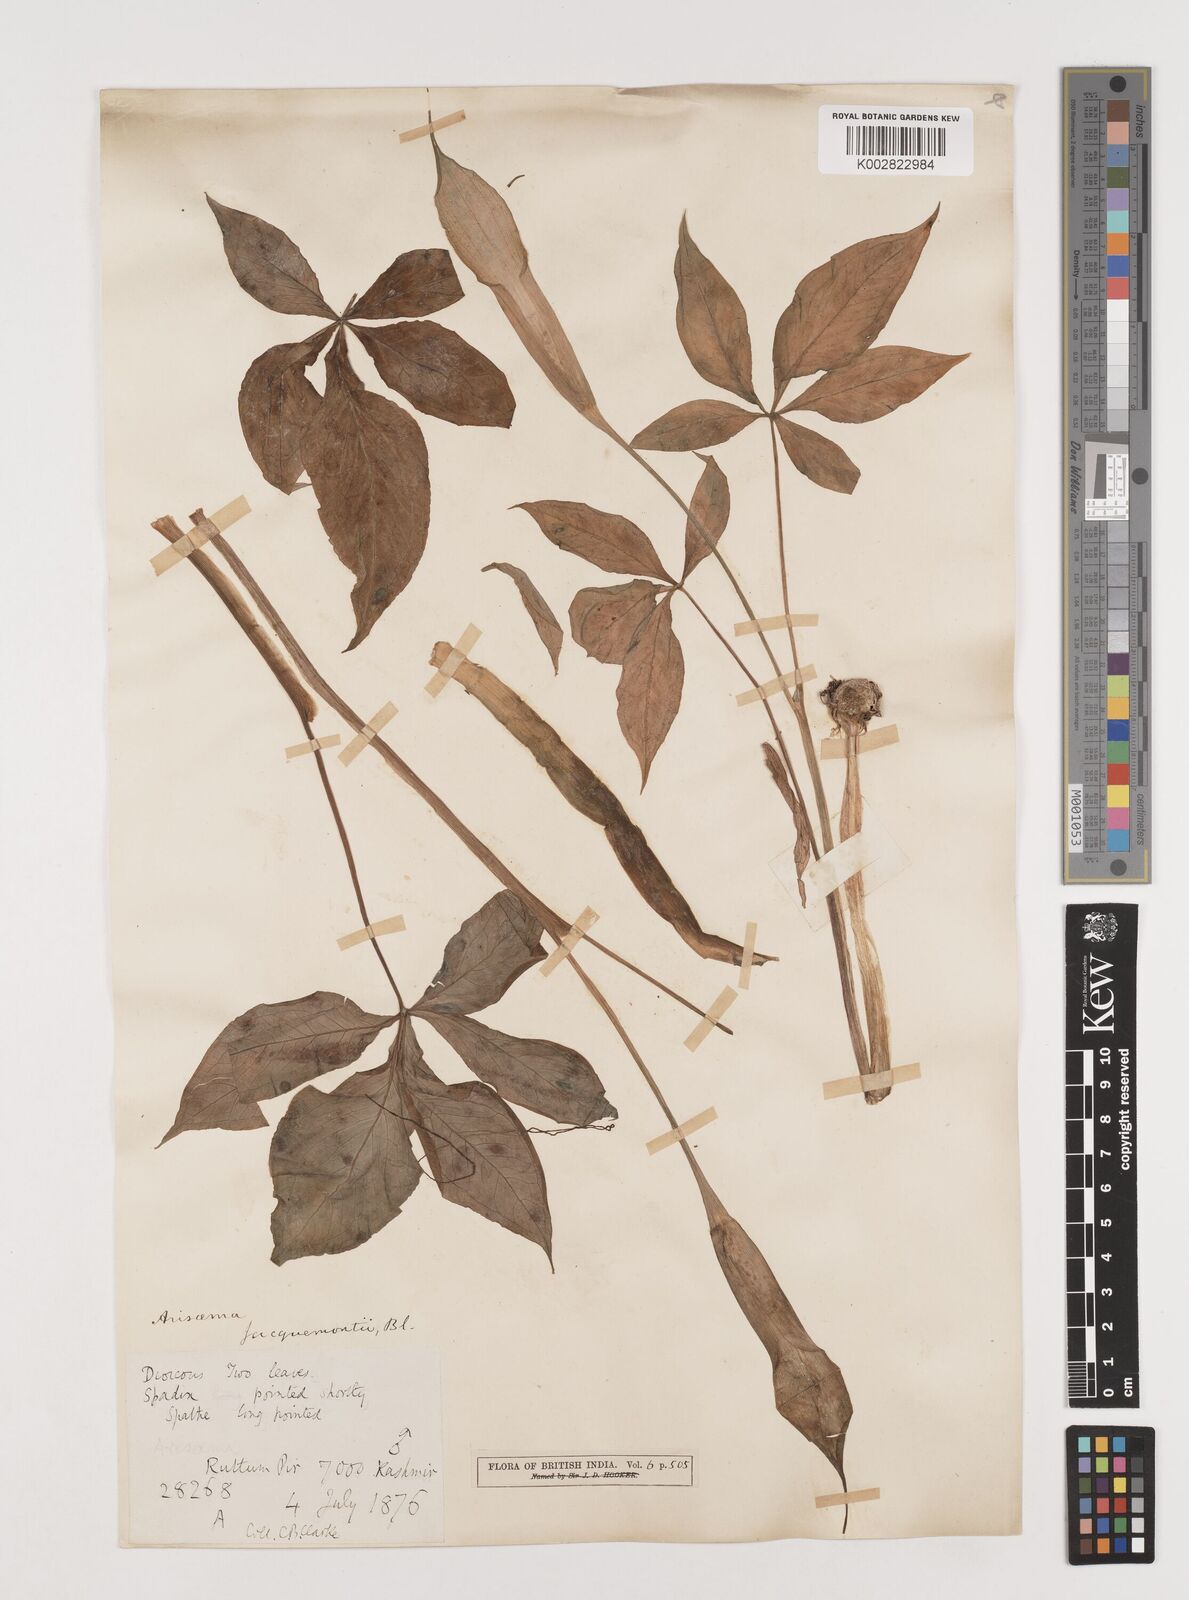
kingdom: Plantae
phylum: Tracheophyta
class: Liliopsida
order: Alismatales
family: Araceae
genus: Arisaema
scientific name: Arisaema
